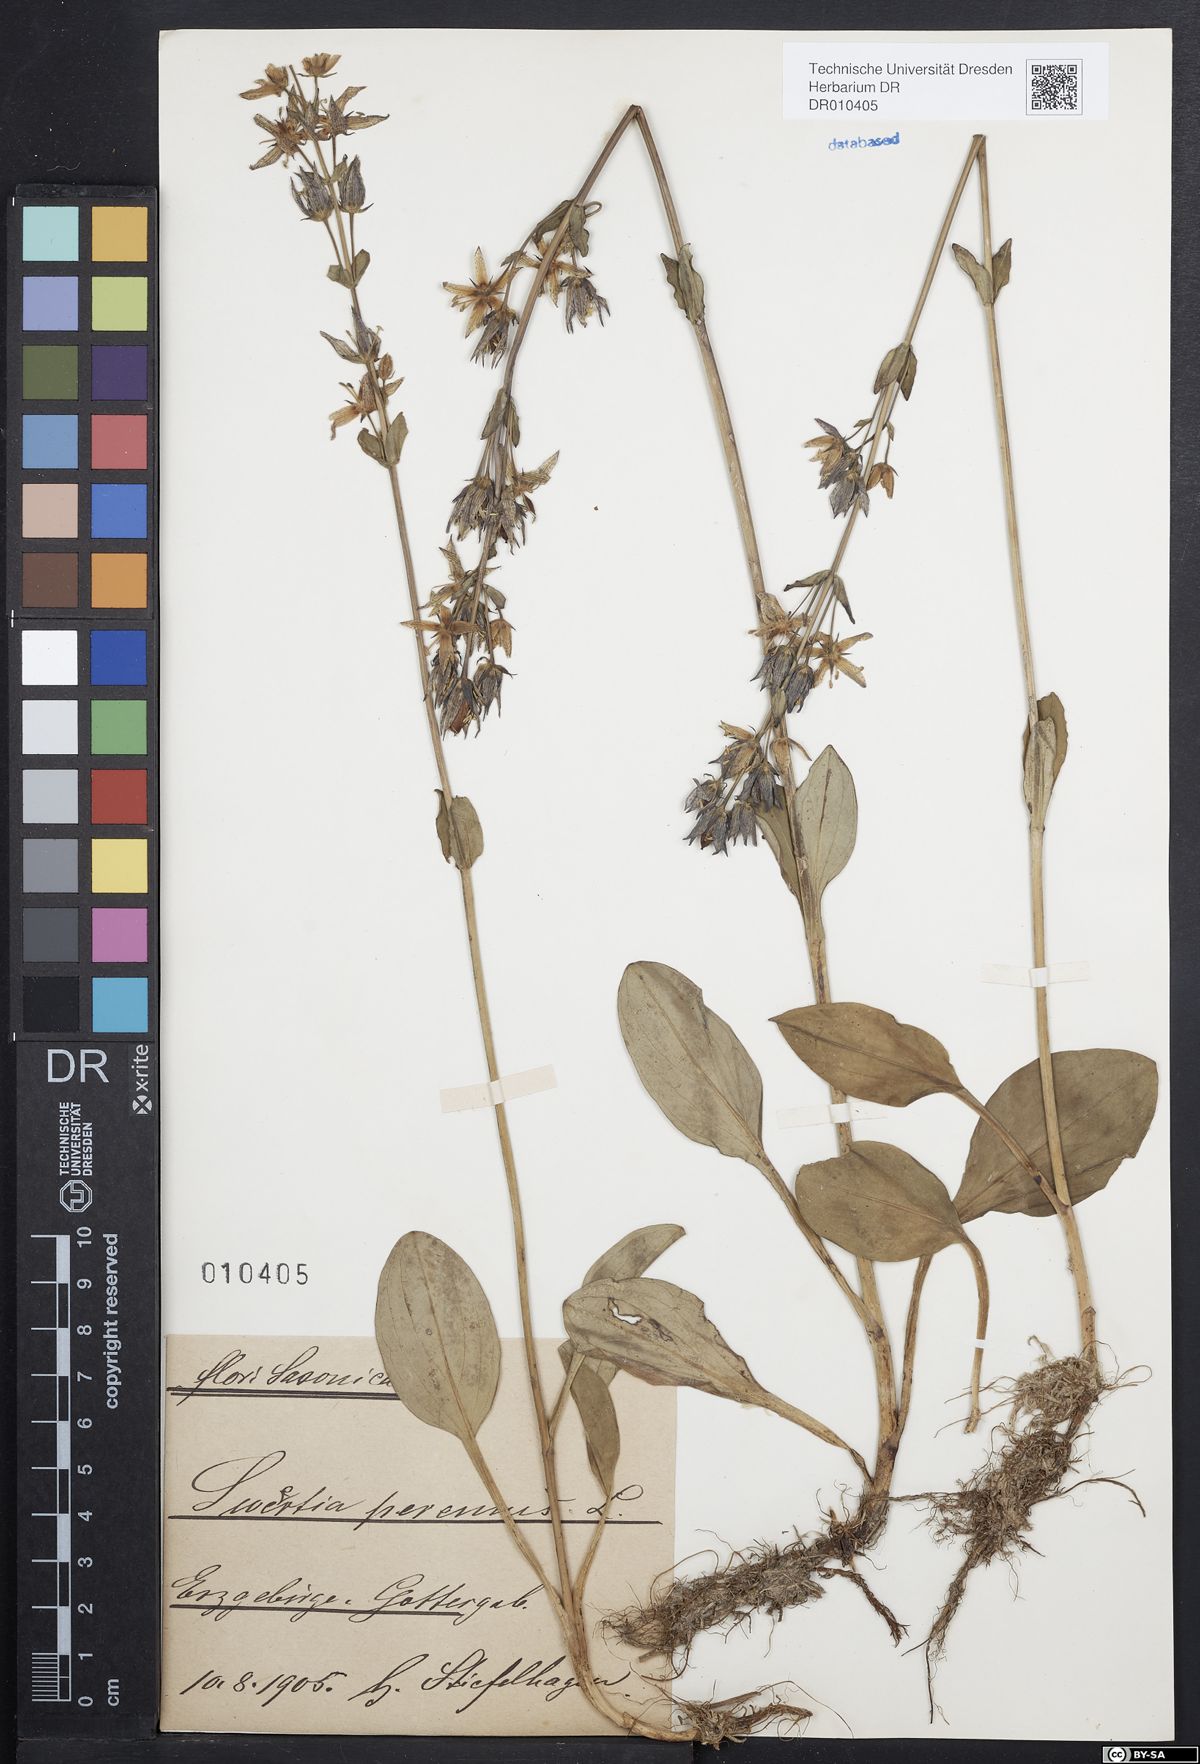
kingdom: Plantae
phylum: Tracheophyta
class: Magnoliopsida
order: Gentianales
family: Gentianaceae
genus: Swertia
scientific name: Swertia perennis
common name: Alpine bog swertia
